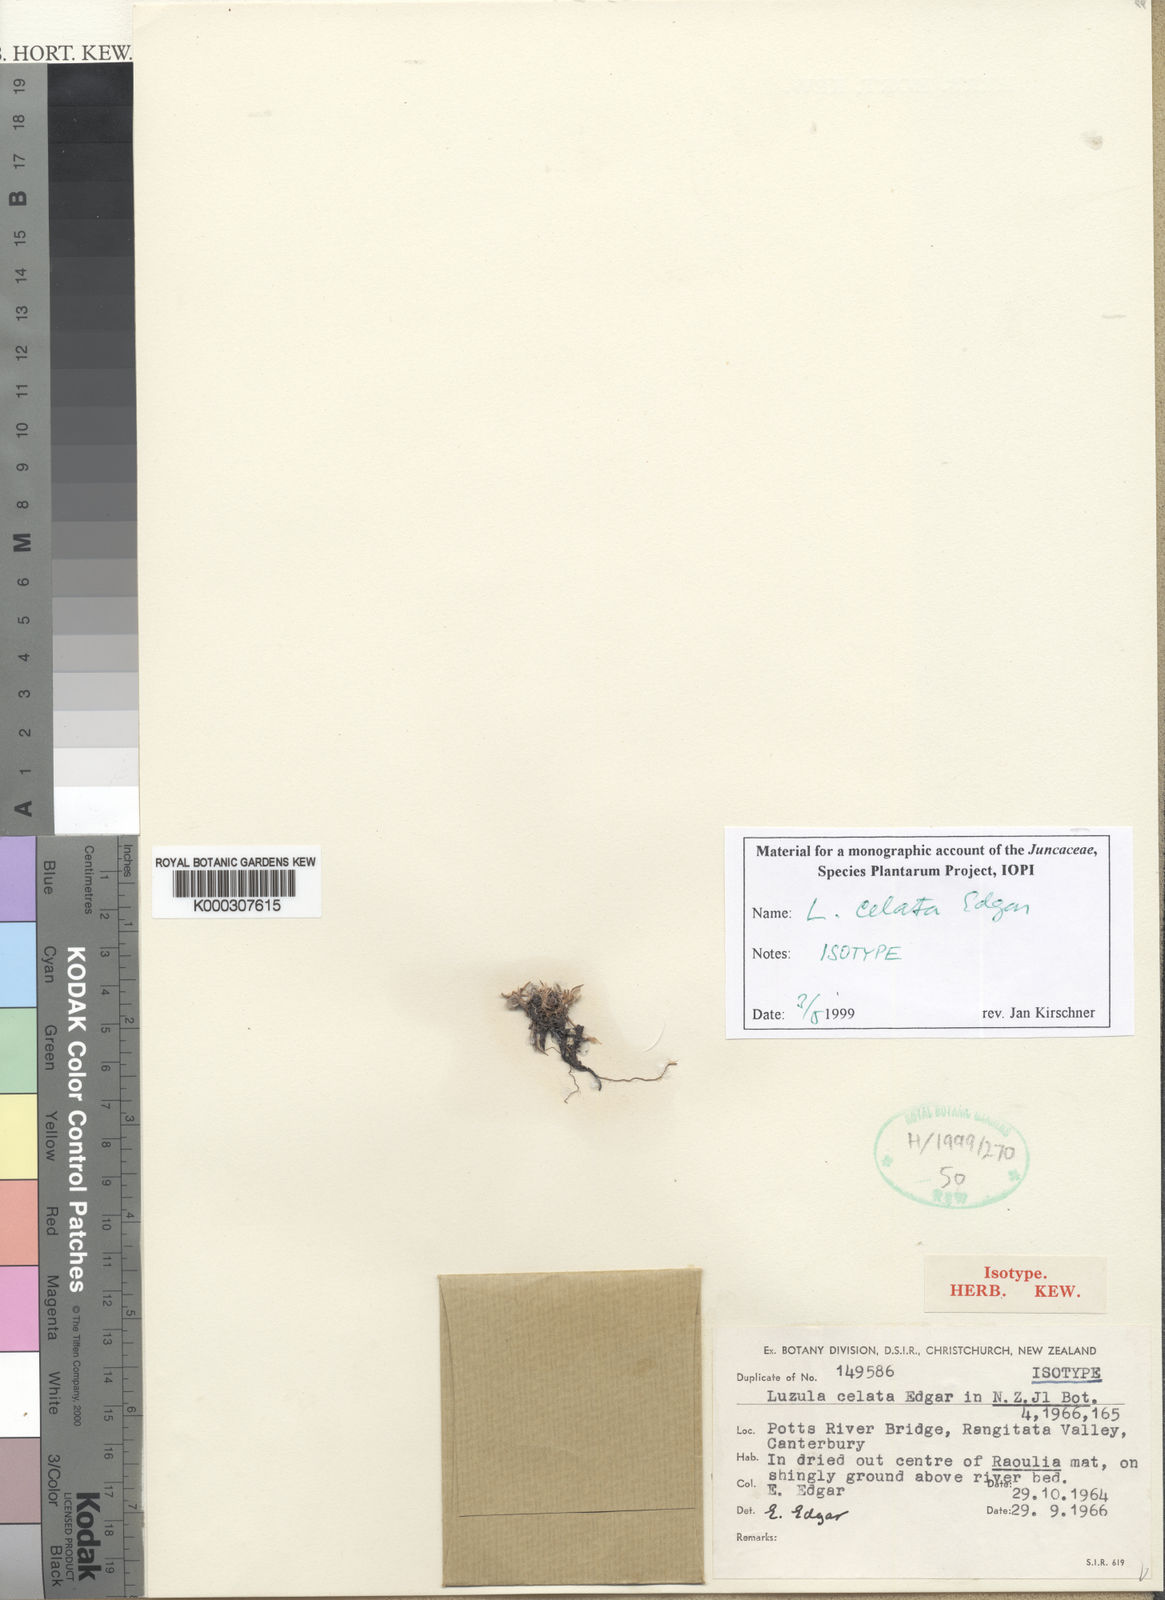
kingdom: Plantae
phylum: Tracheophyta
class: Liliopsida
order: Poales
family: Juncaceae
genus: Luzula
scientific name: Luzula celata
